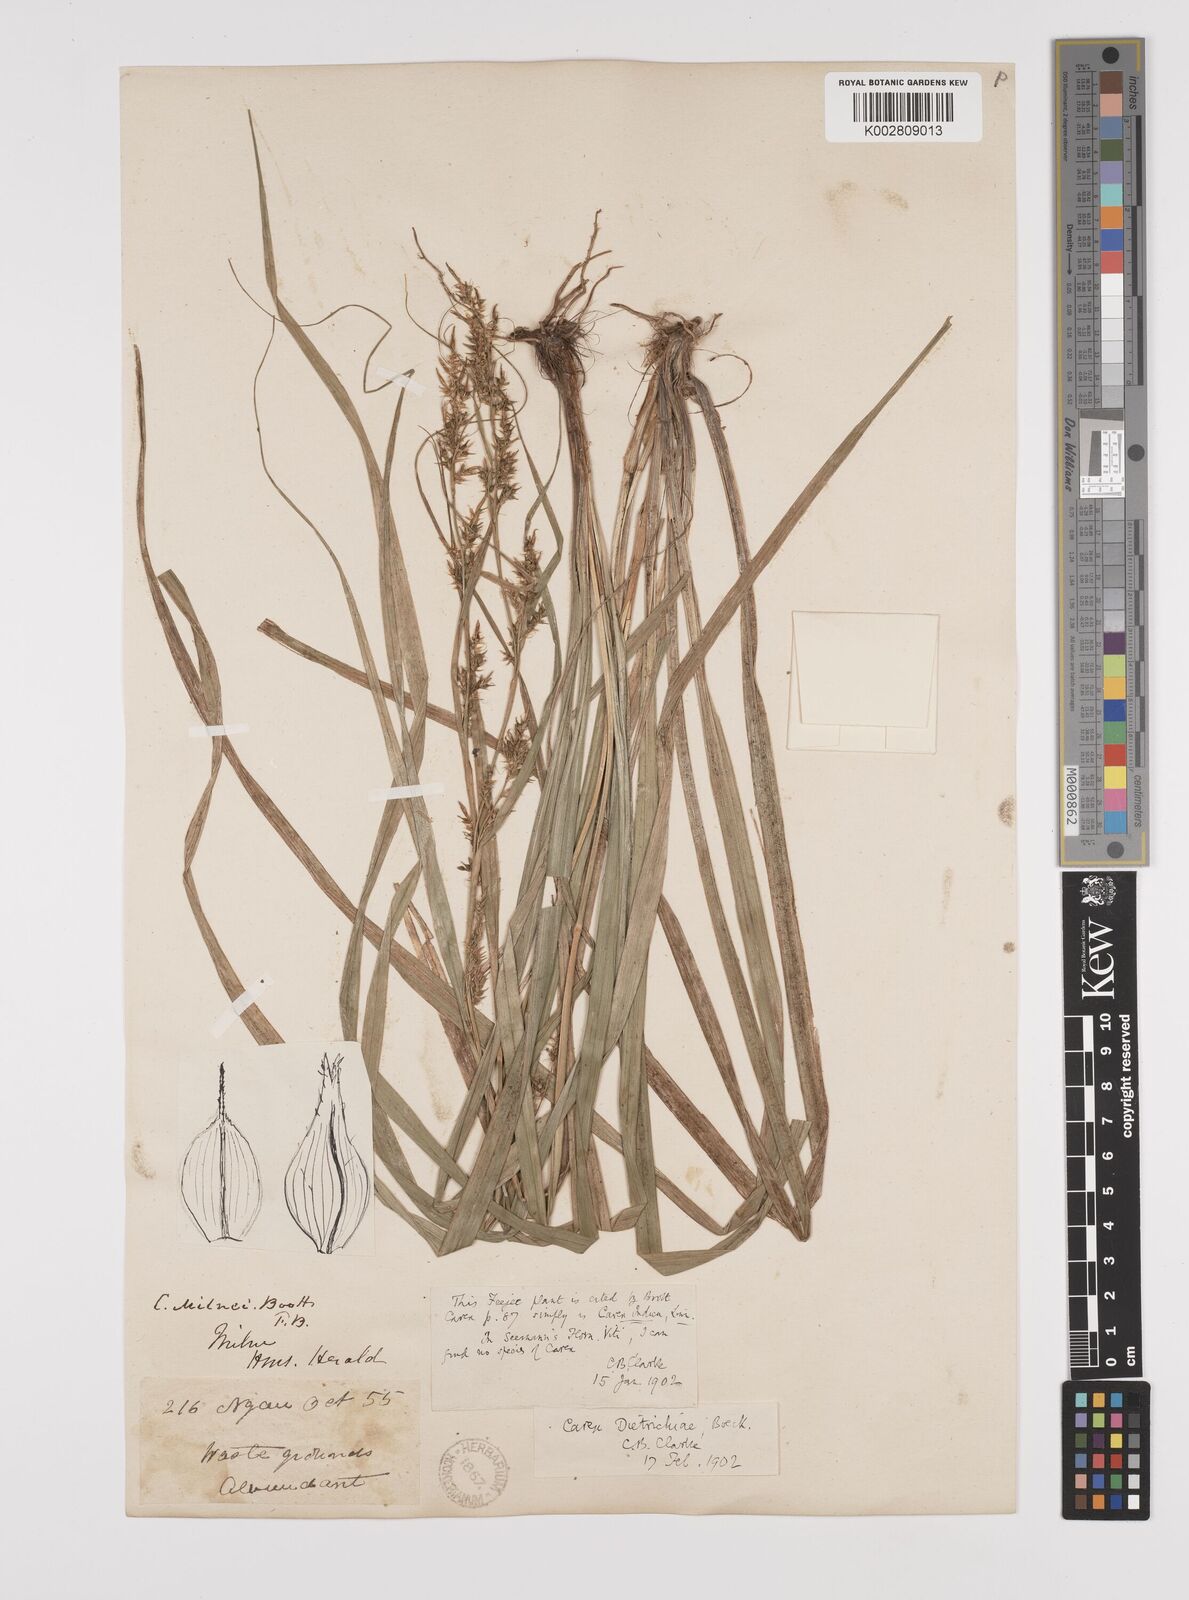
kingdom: Plantae
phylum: Tracheophyta
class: Liliopsida
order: Poales
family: Cyperaceae
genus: Carex
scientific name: Carex indica
